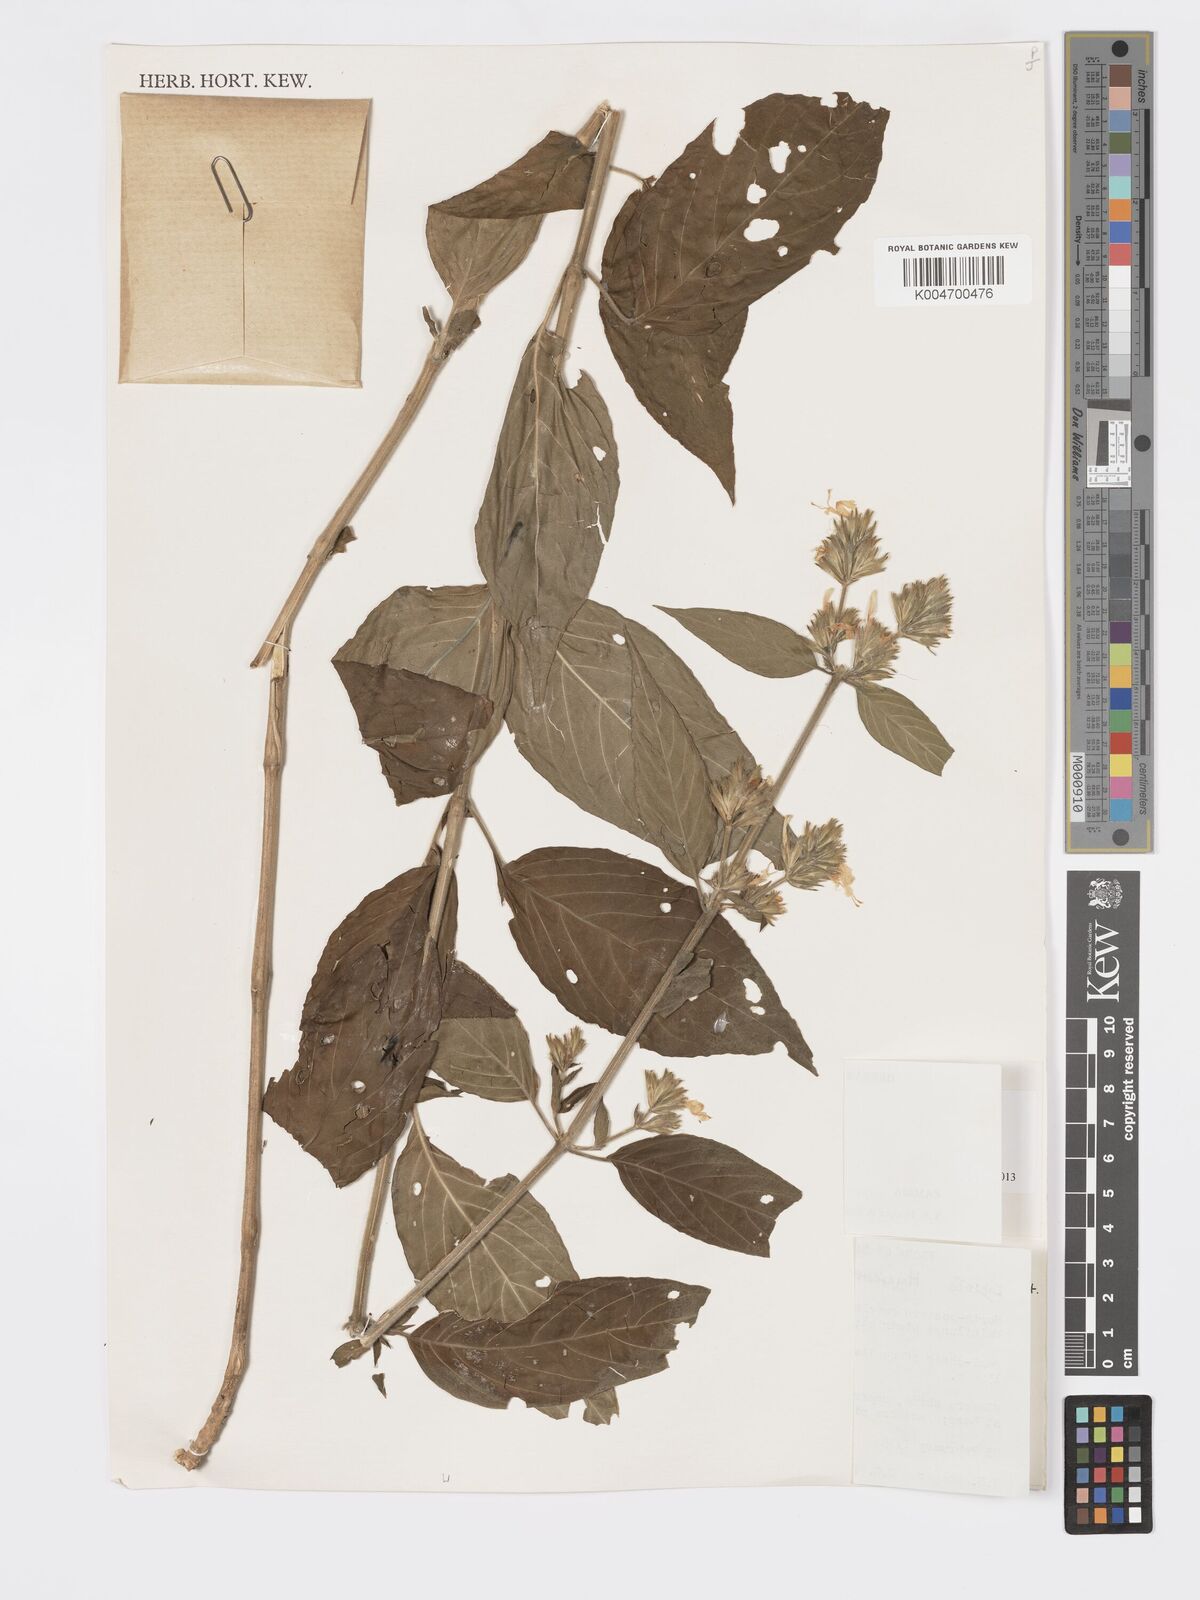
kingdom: Plantae
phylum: Tracheophyta
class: Magnoliopsida
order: Lamiales
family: Acanthaceae
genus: Hypoestes
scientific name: Hypoestes forskaolii
